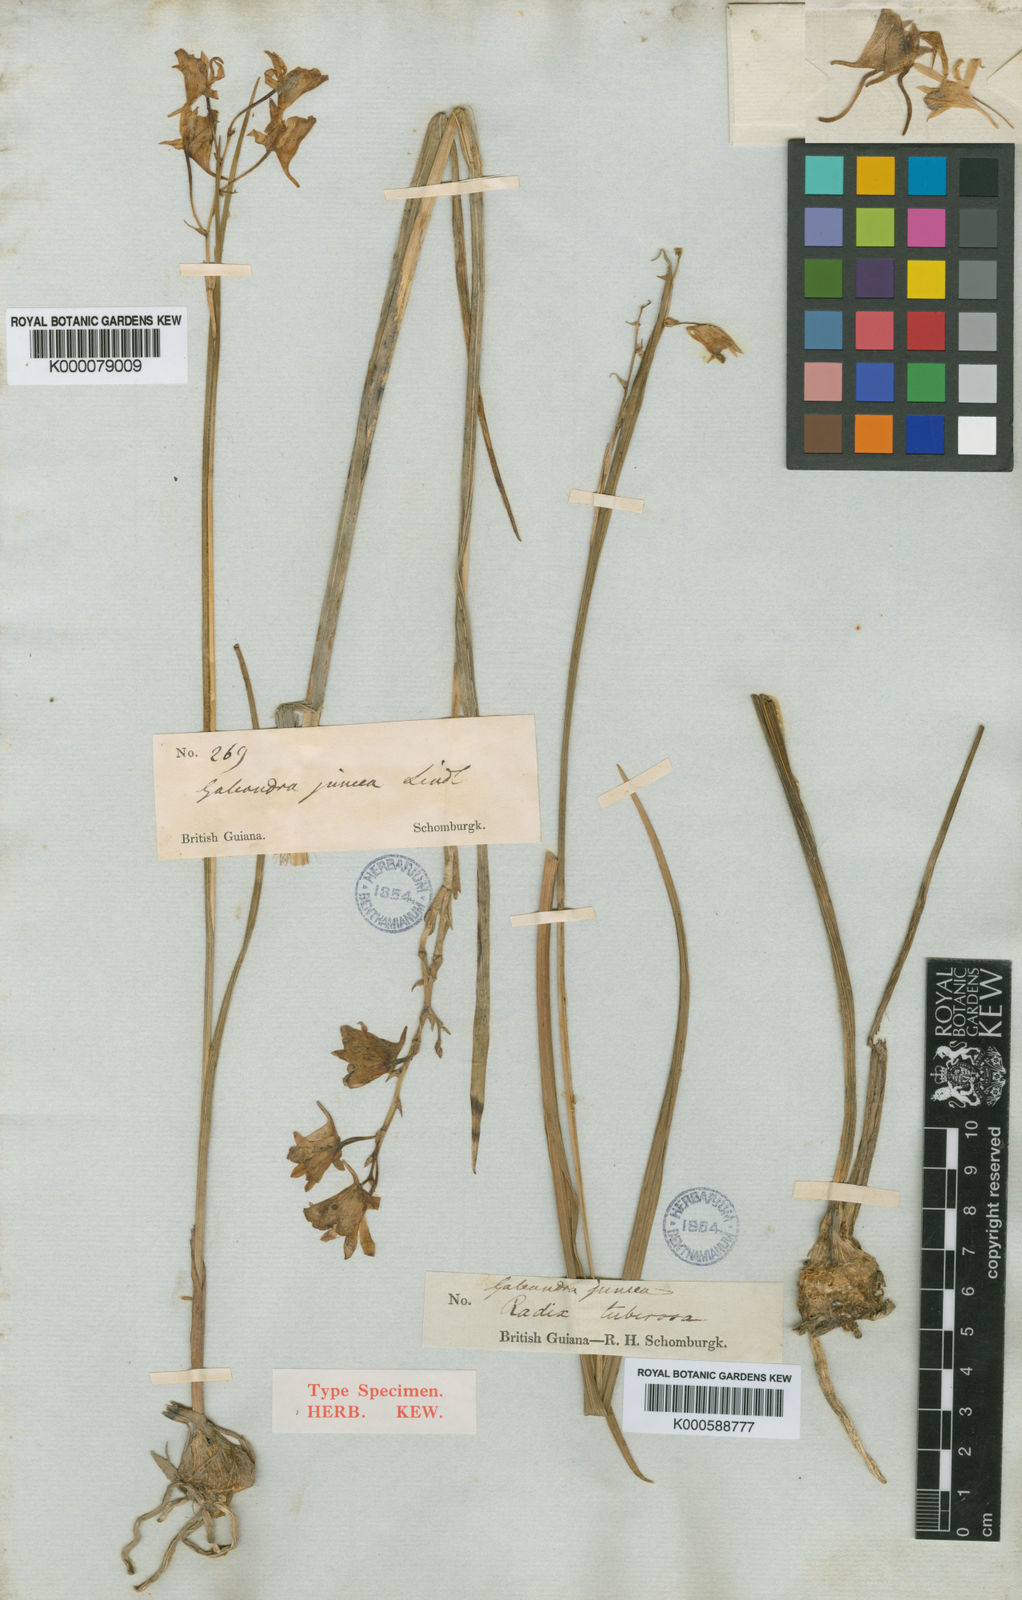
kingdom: Plantae
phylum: Tracheophyta
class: Liliopsida
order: Asparagales
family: Orchidaceae
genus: Galeandra
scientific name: Galeandra styllomisantha
